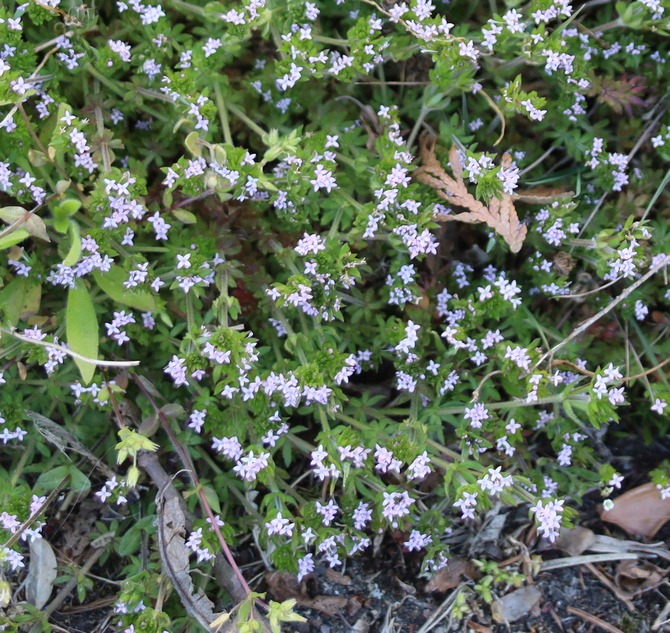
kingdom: Plantae
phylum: Tracheophyta
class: Magnoliopsida
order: Gentianales
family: Rubiaceae
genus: Sherardia
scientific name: Sherardia arvensis
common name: Blåstjerne
